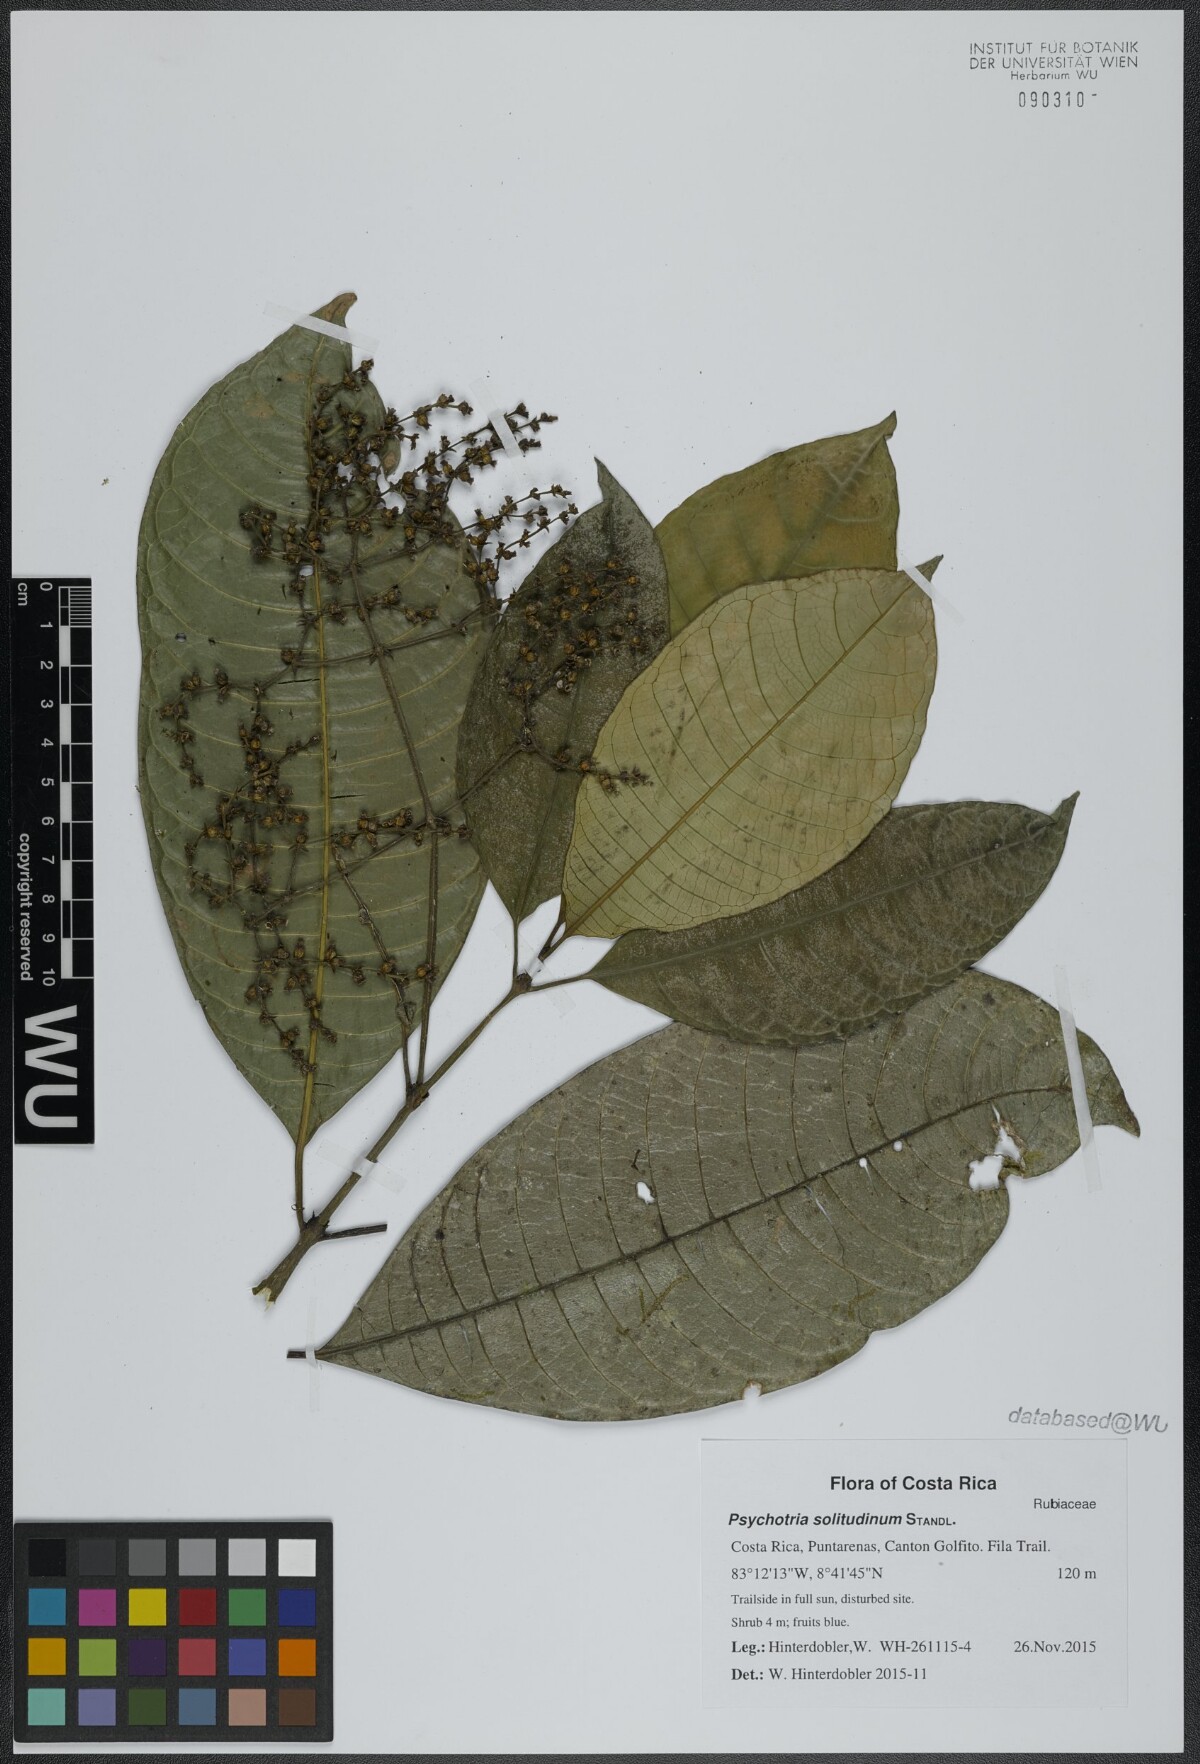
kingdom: Plantae
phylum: Tracheophyta
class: Magnoliopsida
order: Gentianales
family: Rubiaceae
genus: Palicourea
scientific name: Palicourea solitudinum
